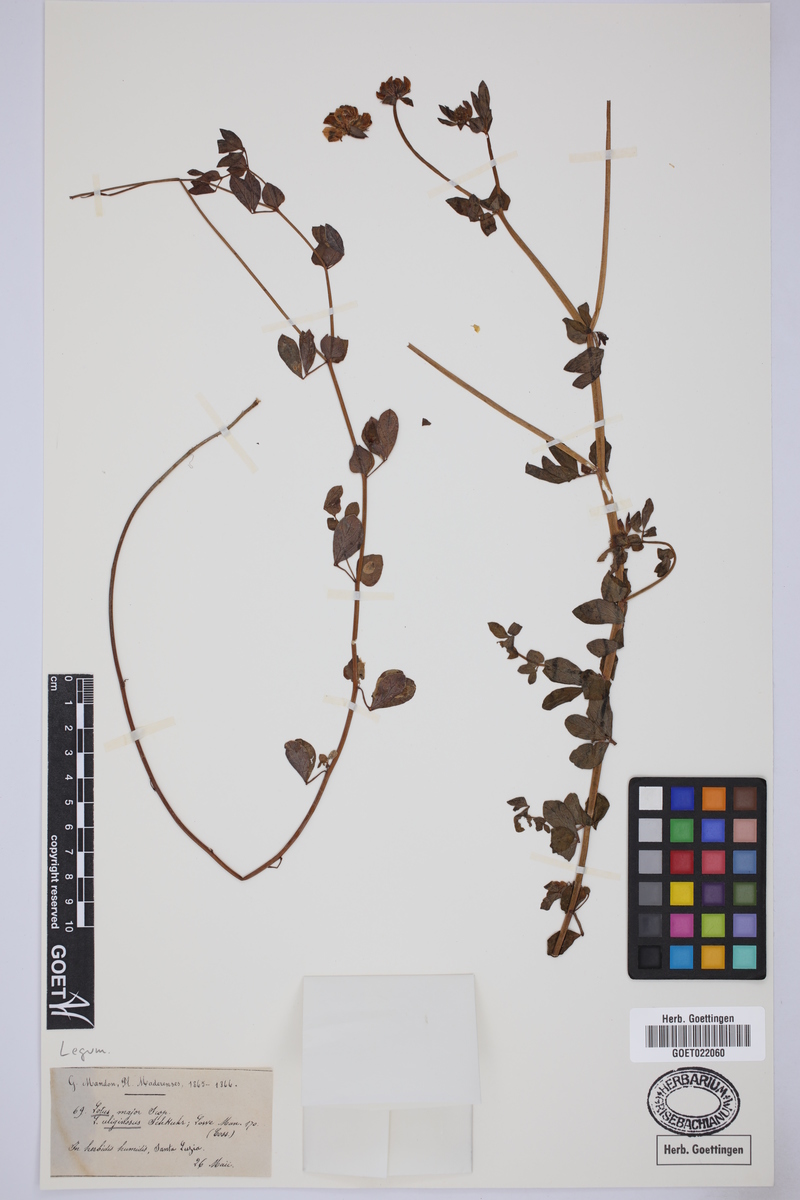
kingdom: Plantae
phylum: Tracheophyta
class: Magnoliopsida
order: Fabales
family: Fabaceae
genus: Lotus
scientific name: Lotus pedunculatus
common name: Greater birdsfoot-trefoil
